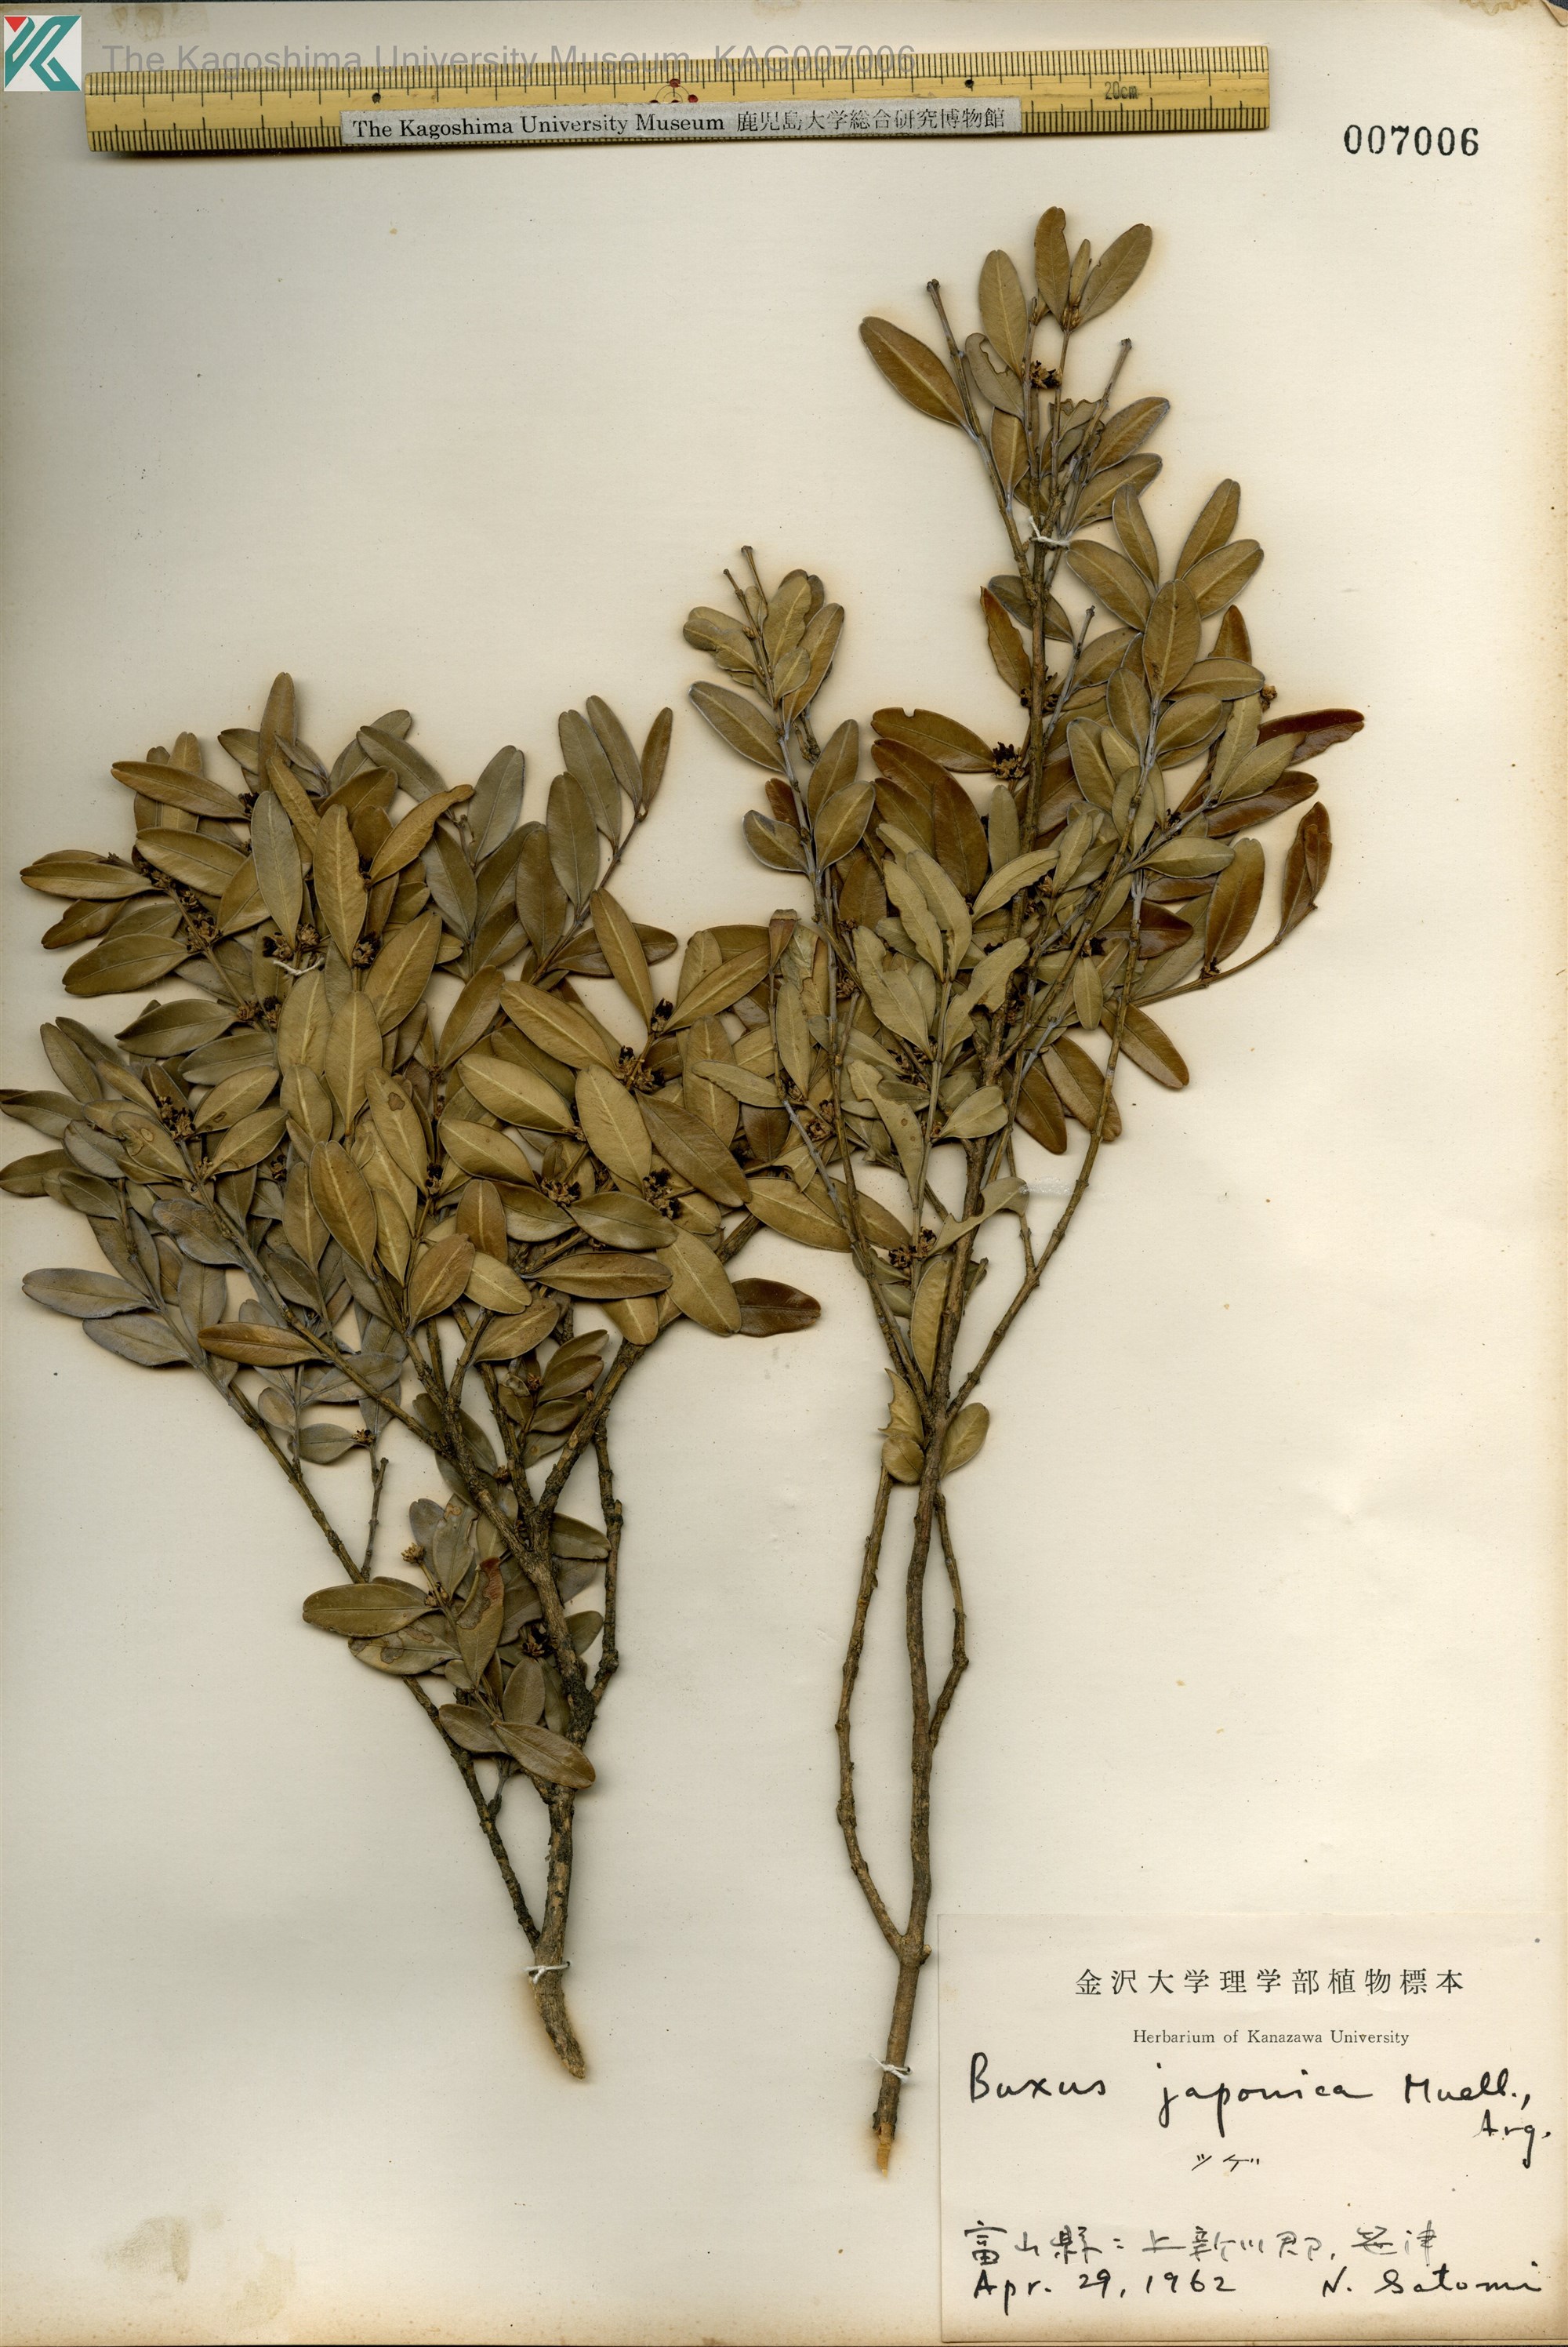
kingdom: Plantae
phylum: Tracheophyta
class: Magnoliopsida
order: Buxales
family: Buxaceae
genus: Buxus
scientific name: Buxus microphylla
